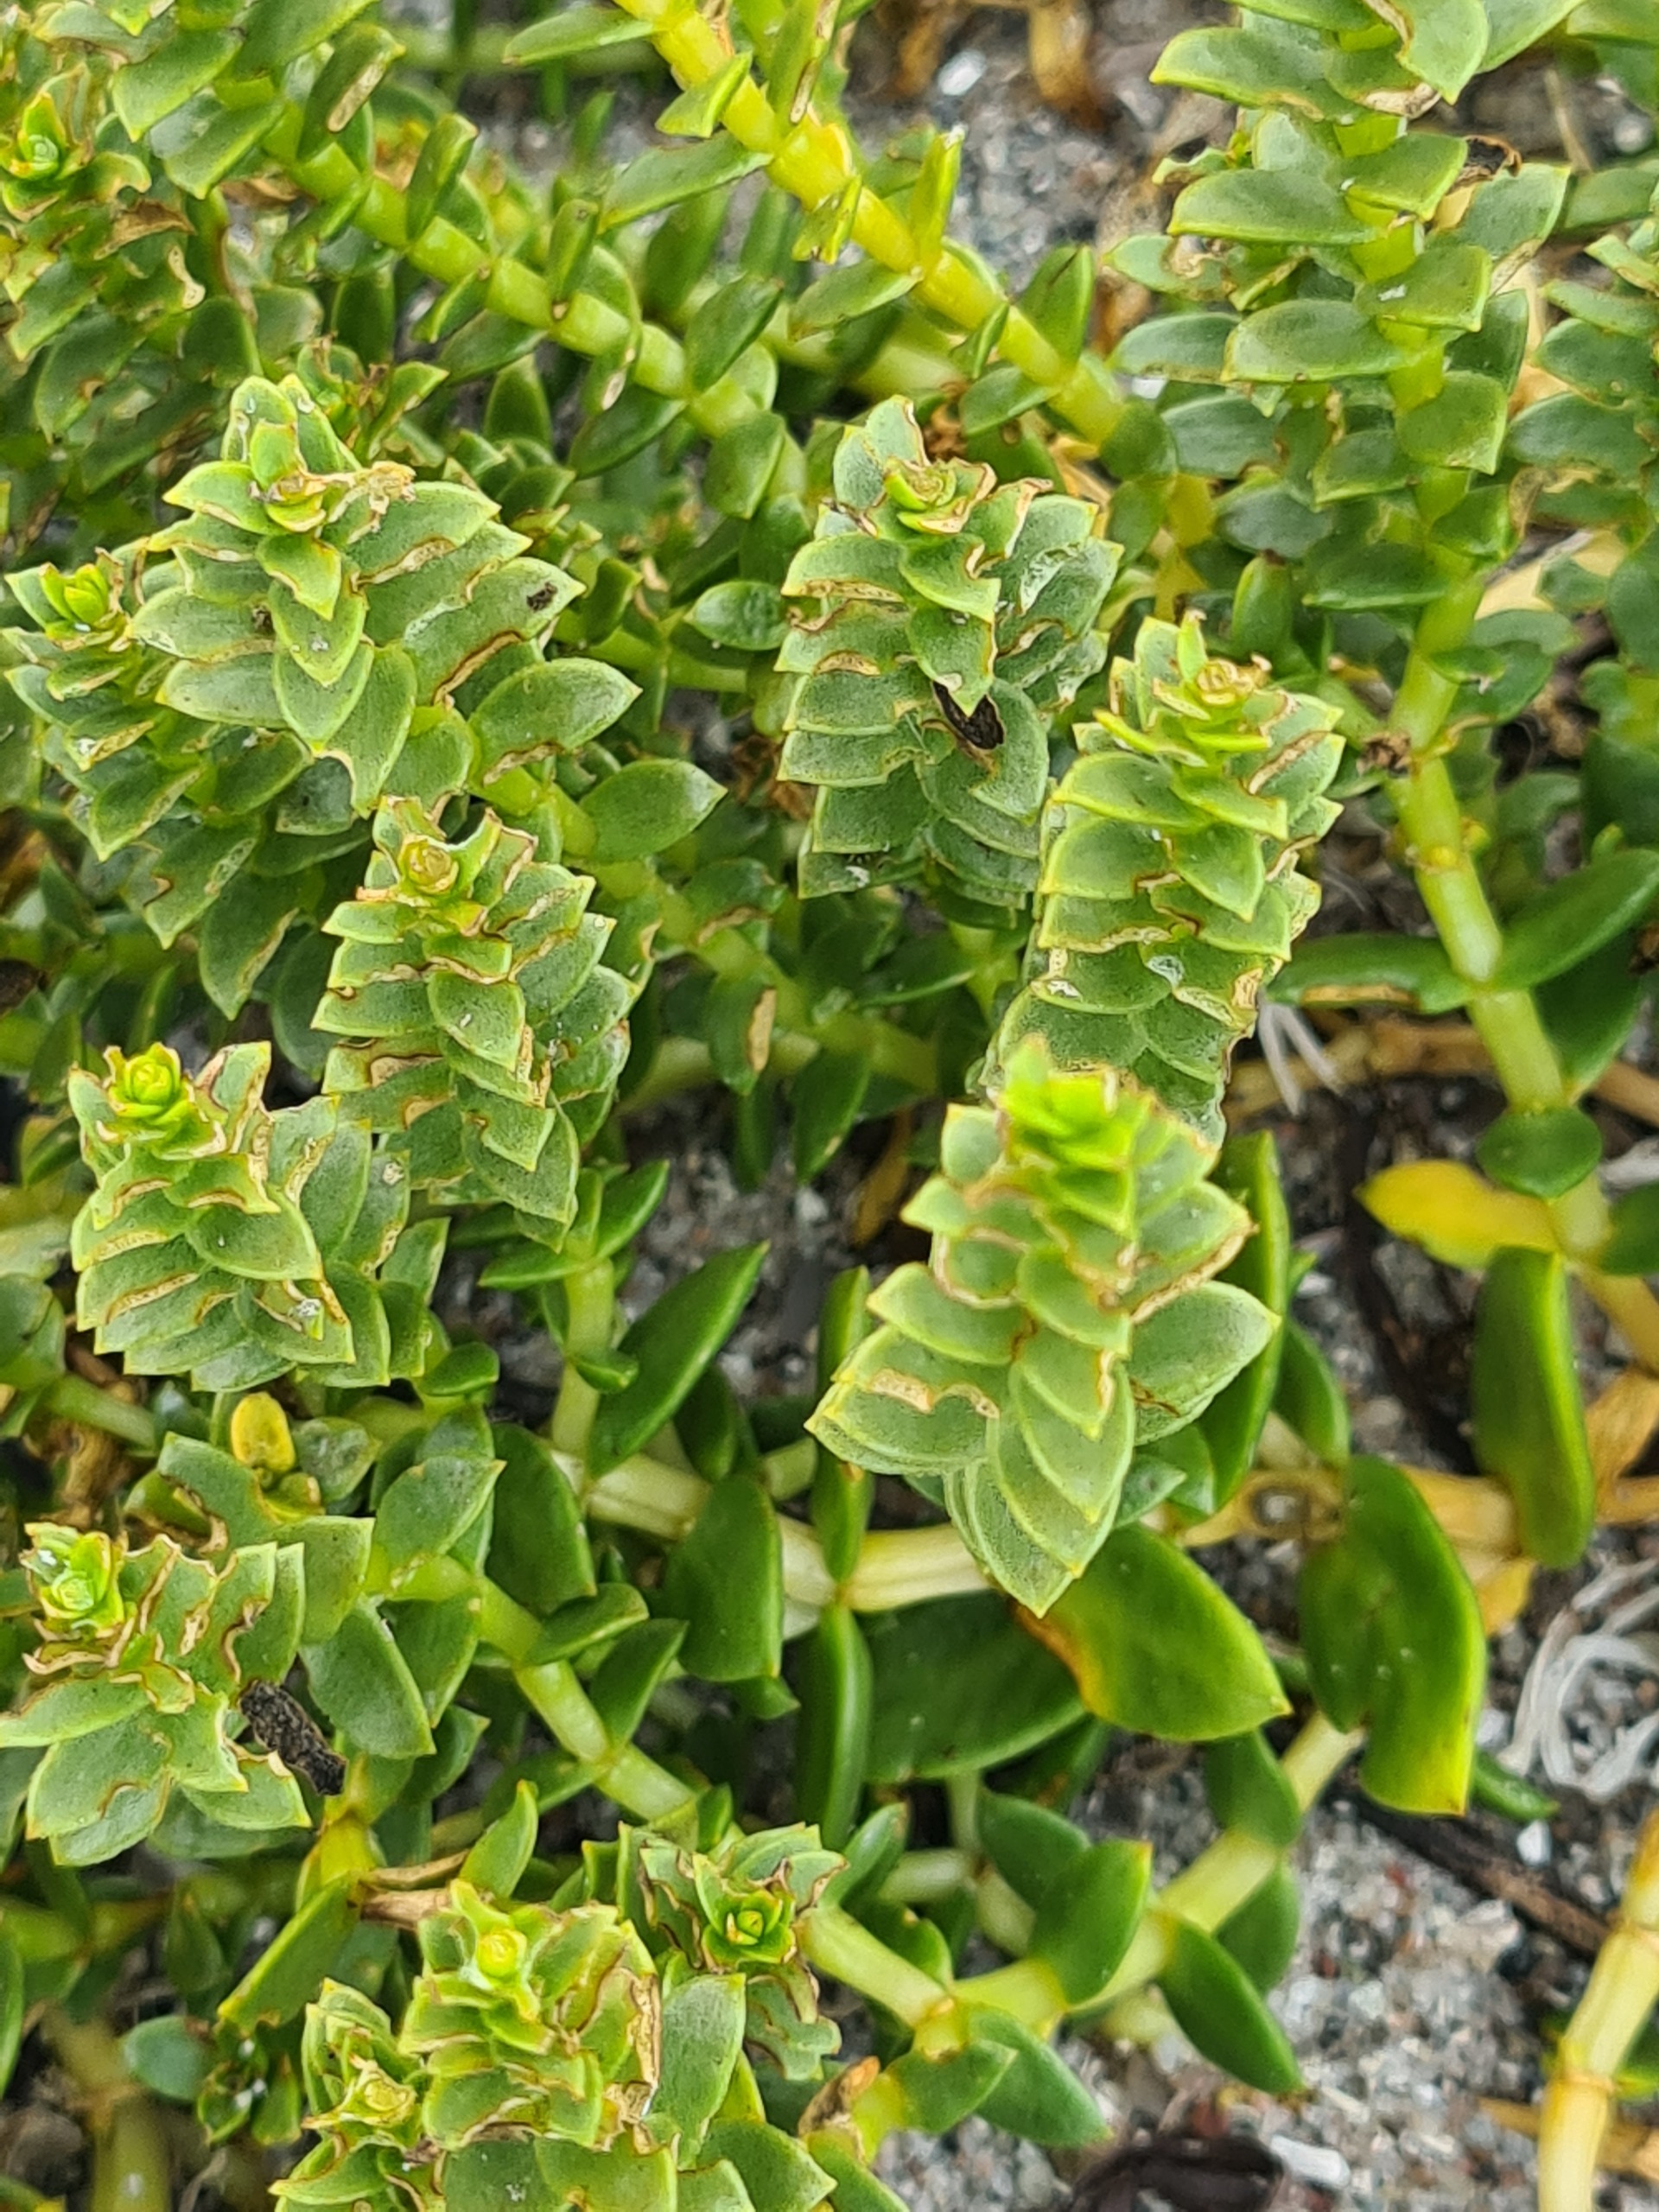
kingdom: Plantae
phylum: Tracheophyta
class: Magnoliopsida
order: Caryophyllales
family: Caryophyllaceae
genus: Honckenya
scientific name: Honckenya peploides
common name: Strandarve
